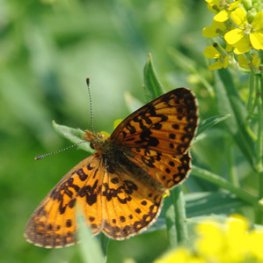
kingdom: Animalia
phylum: Arthropoda
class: Insecta
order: Lepidoptera
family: Nymphalidae
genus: Boloria
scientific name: Boloria selene
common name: Silver-bordered Fritillary
